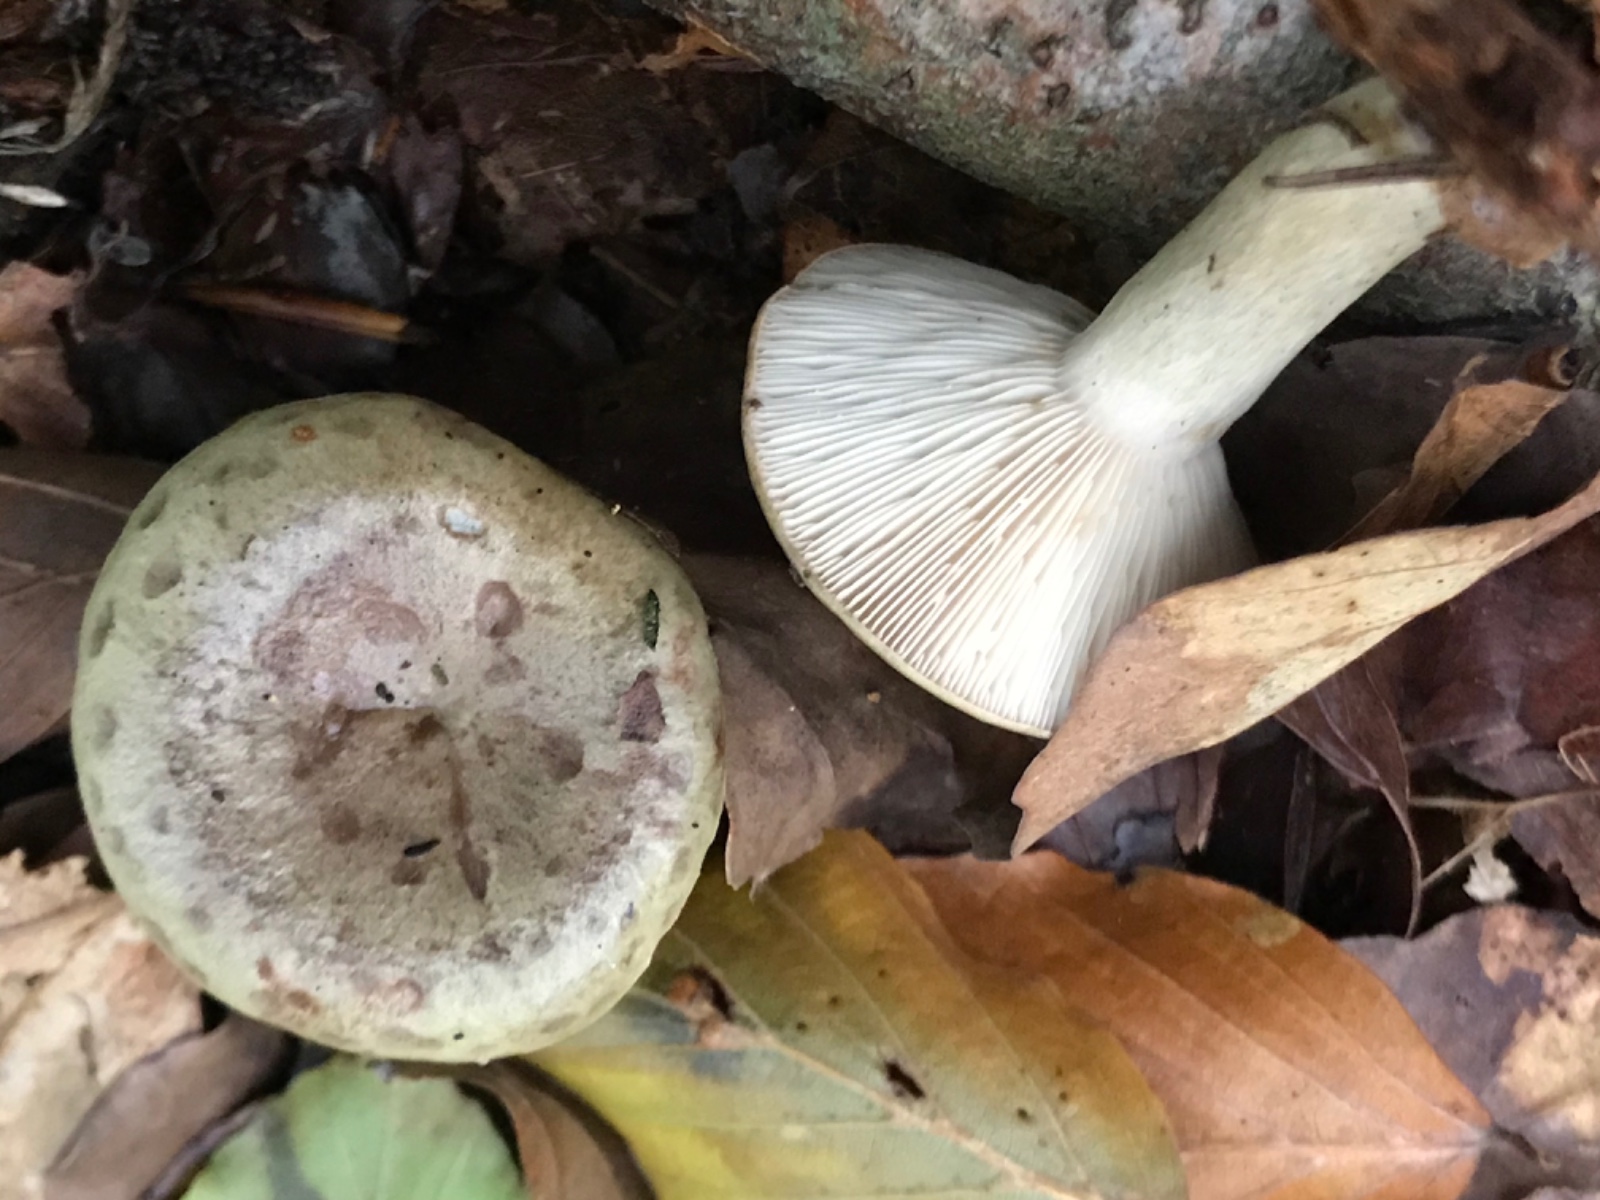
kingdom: Fungi
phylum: Basidiomycota
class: Agaricomycetes
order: Russulales
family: Russulaceae
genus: Lactarius
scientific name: Lactarius blennius
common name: dråbeplettet mælkehat
